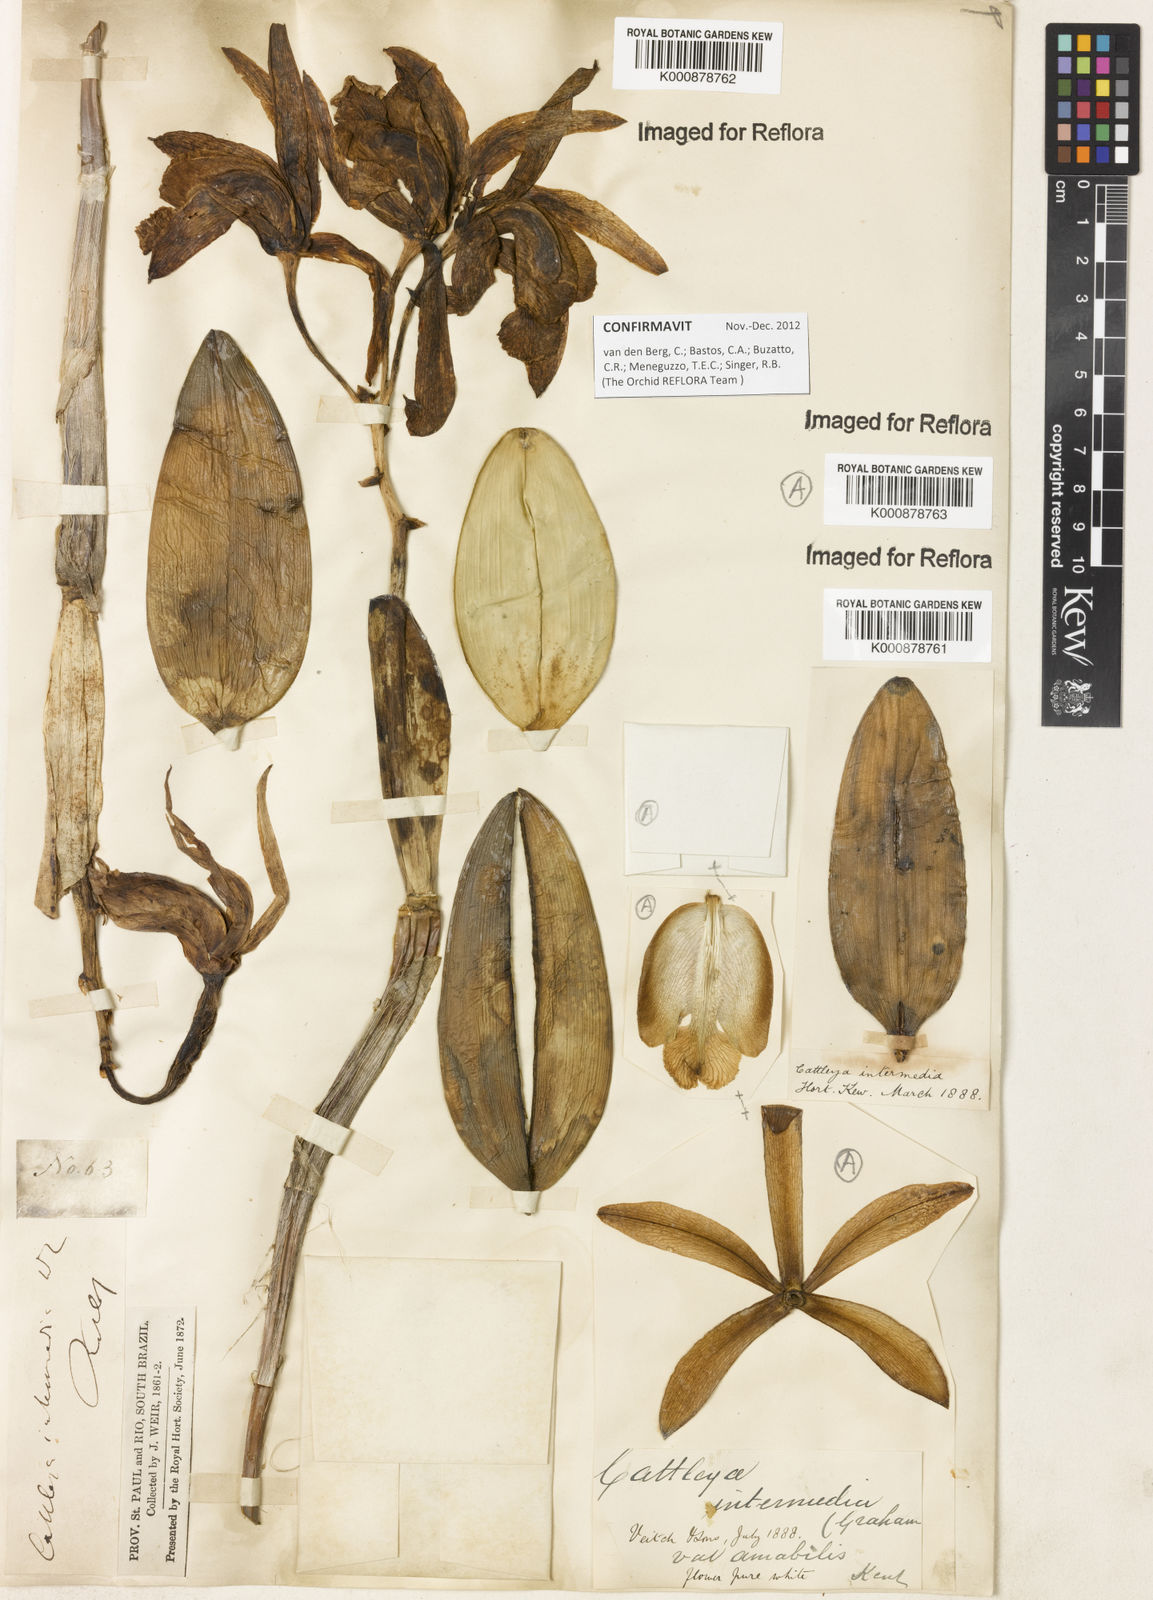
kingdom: Plantae
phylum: Tracheophyta
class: Liliopsida
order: Asparagales
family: Orchidaceae
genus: Cattleya
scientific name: Cattleya intermedia
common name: Intermediate cattleya
